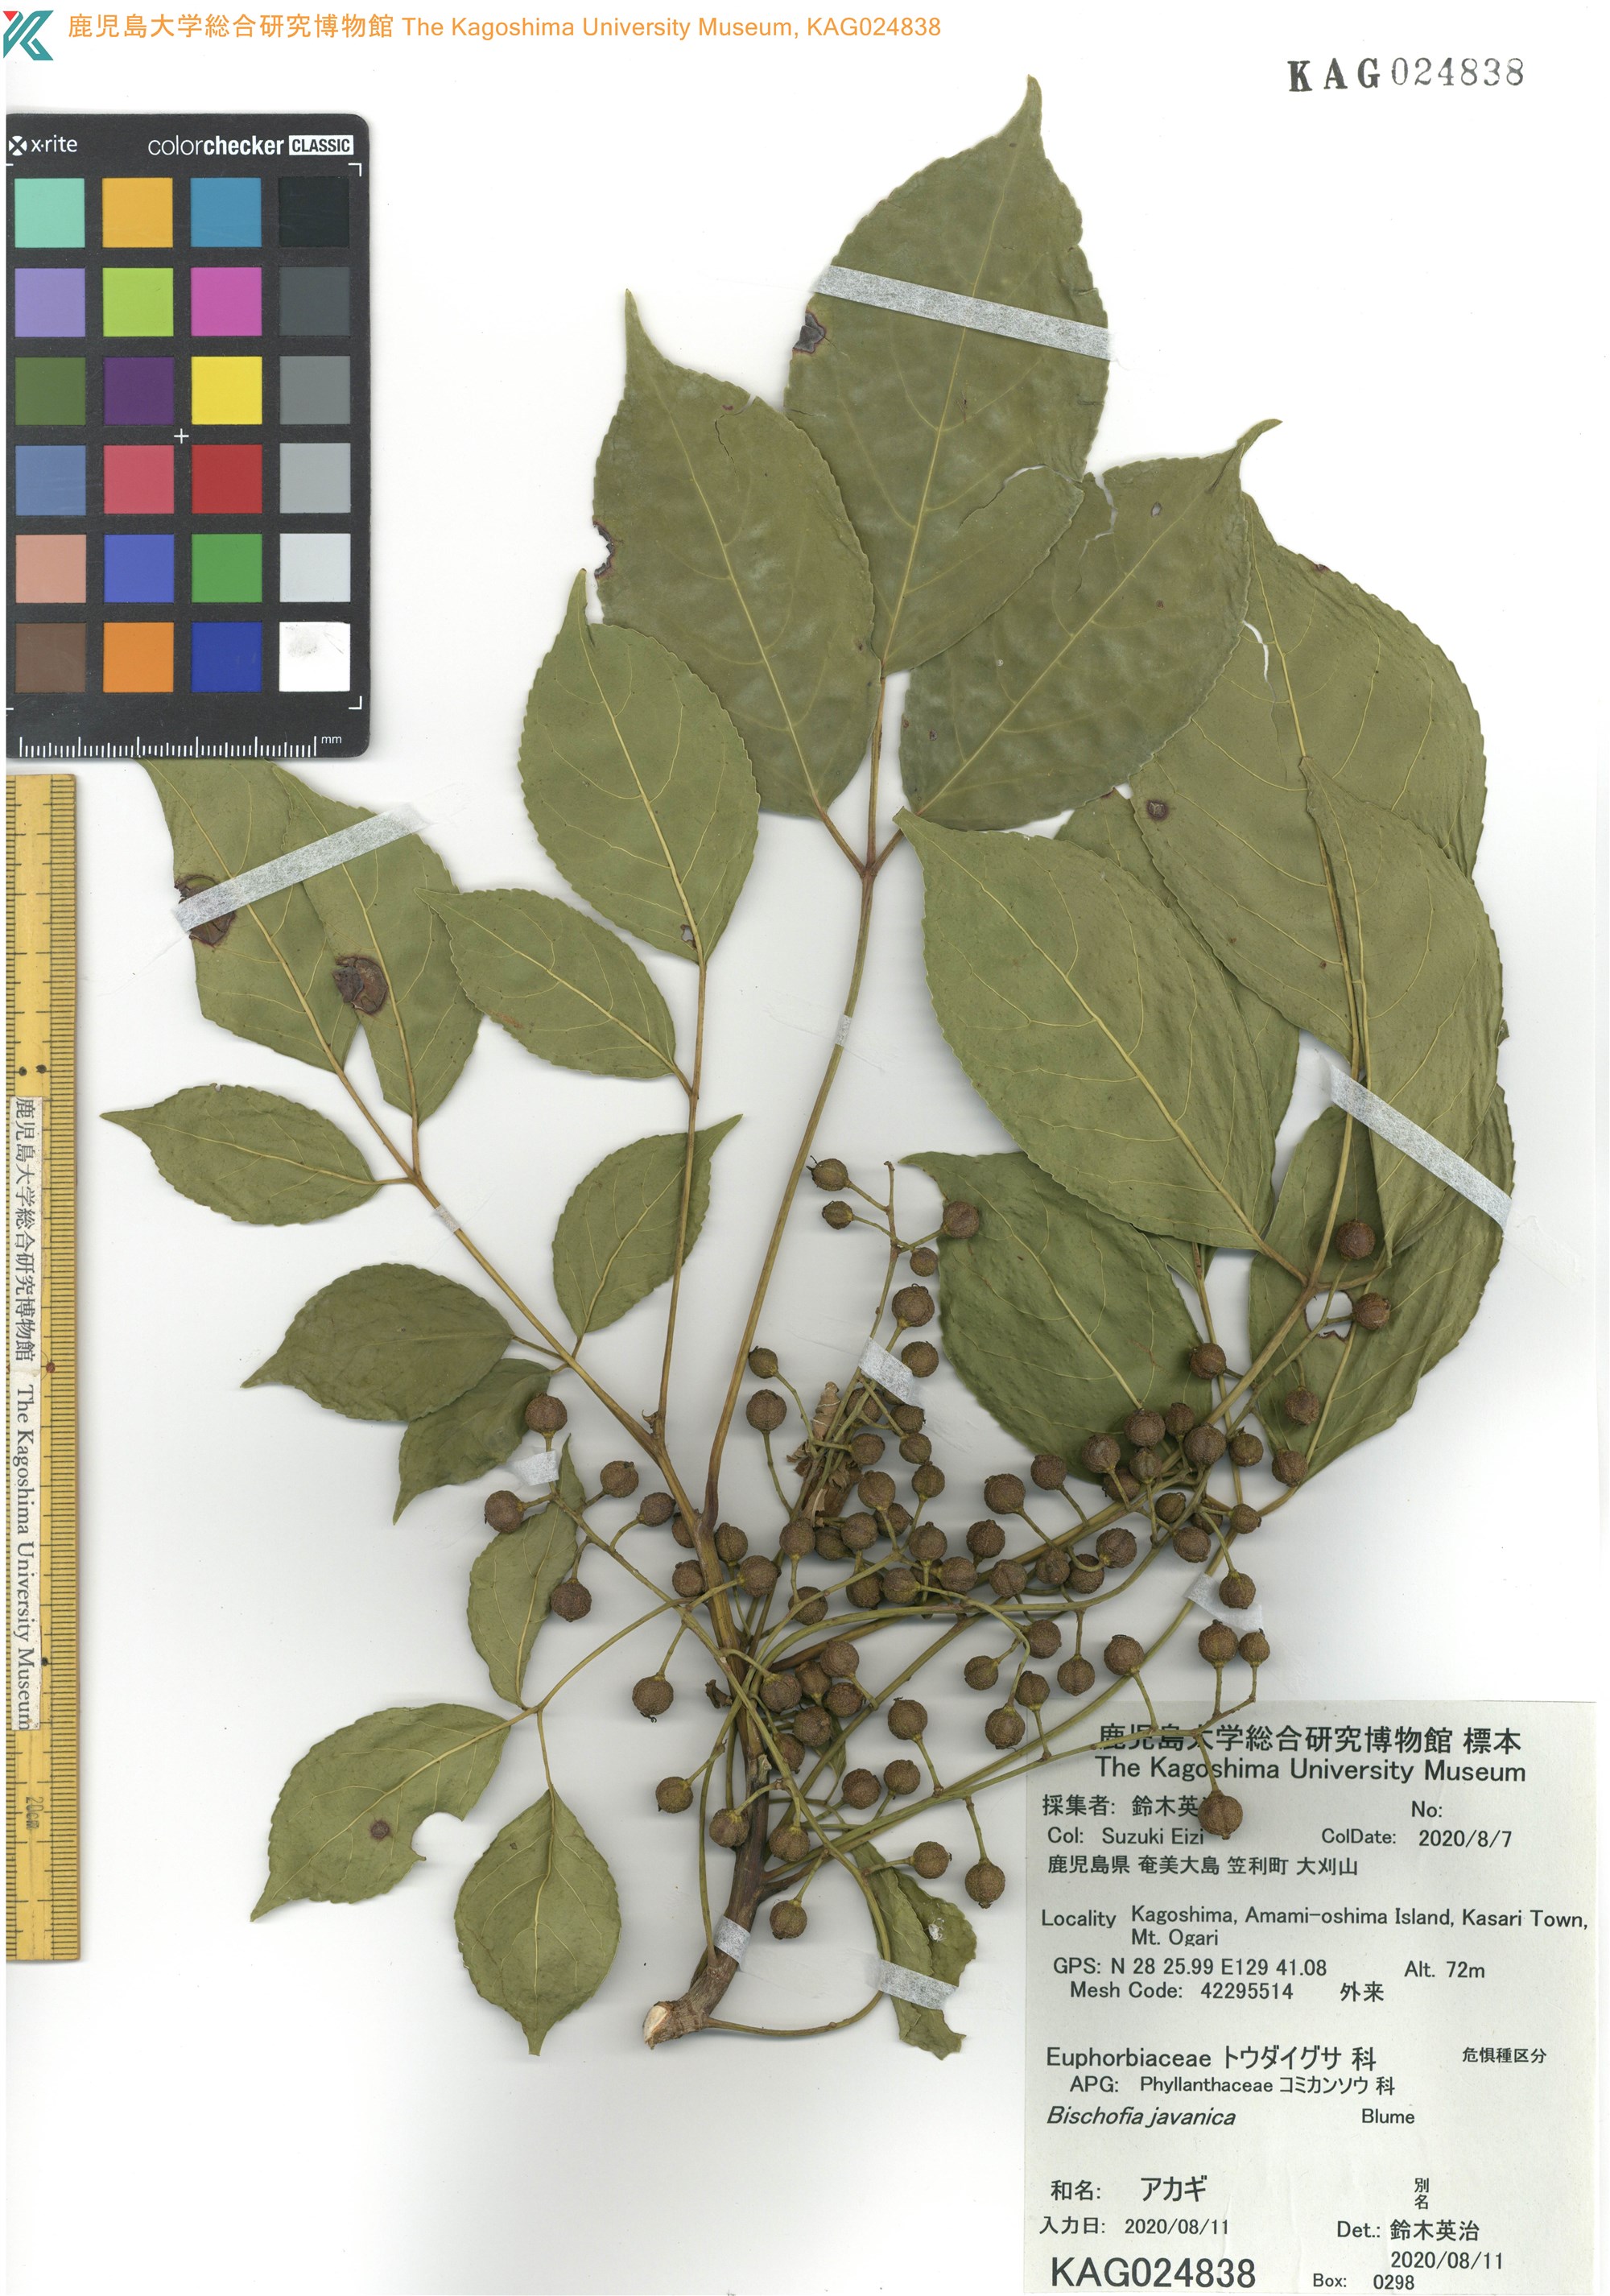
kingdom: Plantae
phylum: Tracheophyta
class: Magnoliopsida
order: Malpighiales
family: Phyllanthaceae
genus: Bischofia
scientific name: Bischofia javanica
